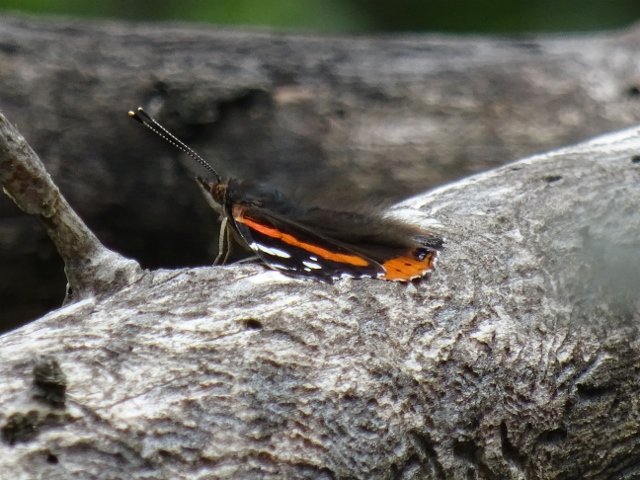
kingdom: Animalia
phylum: Arthropoda
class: Insecta
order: Lepidoptera
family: Nymphalidae
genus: Vanessa
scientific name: Vanessa atalanta
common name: Red Admiral
